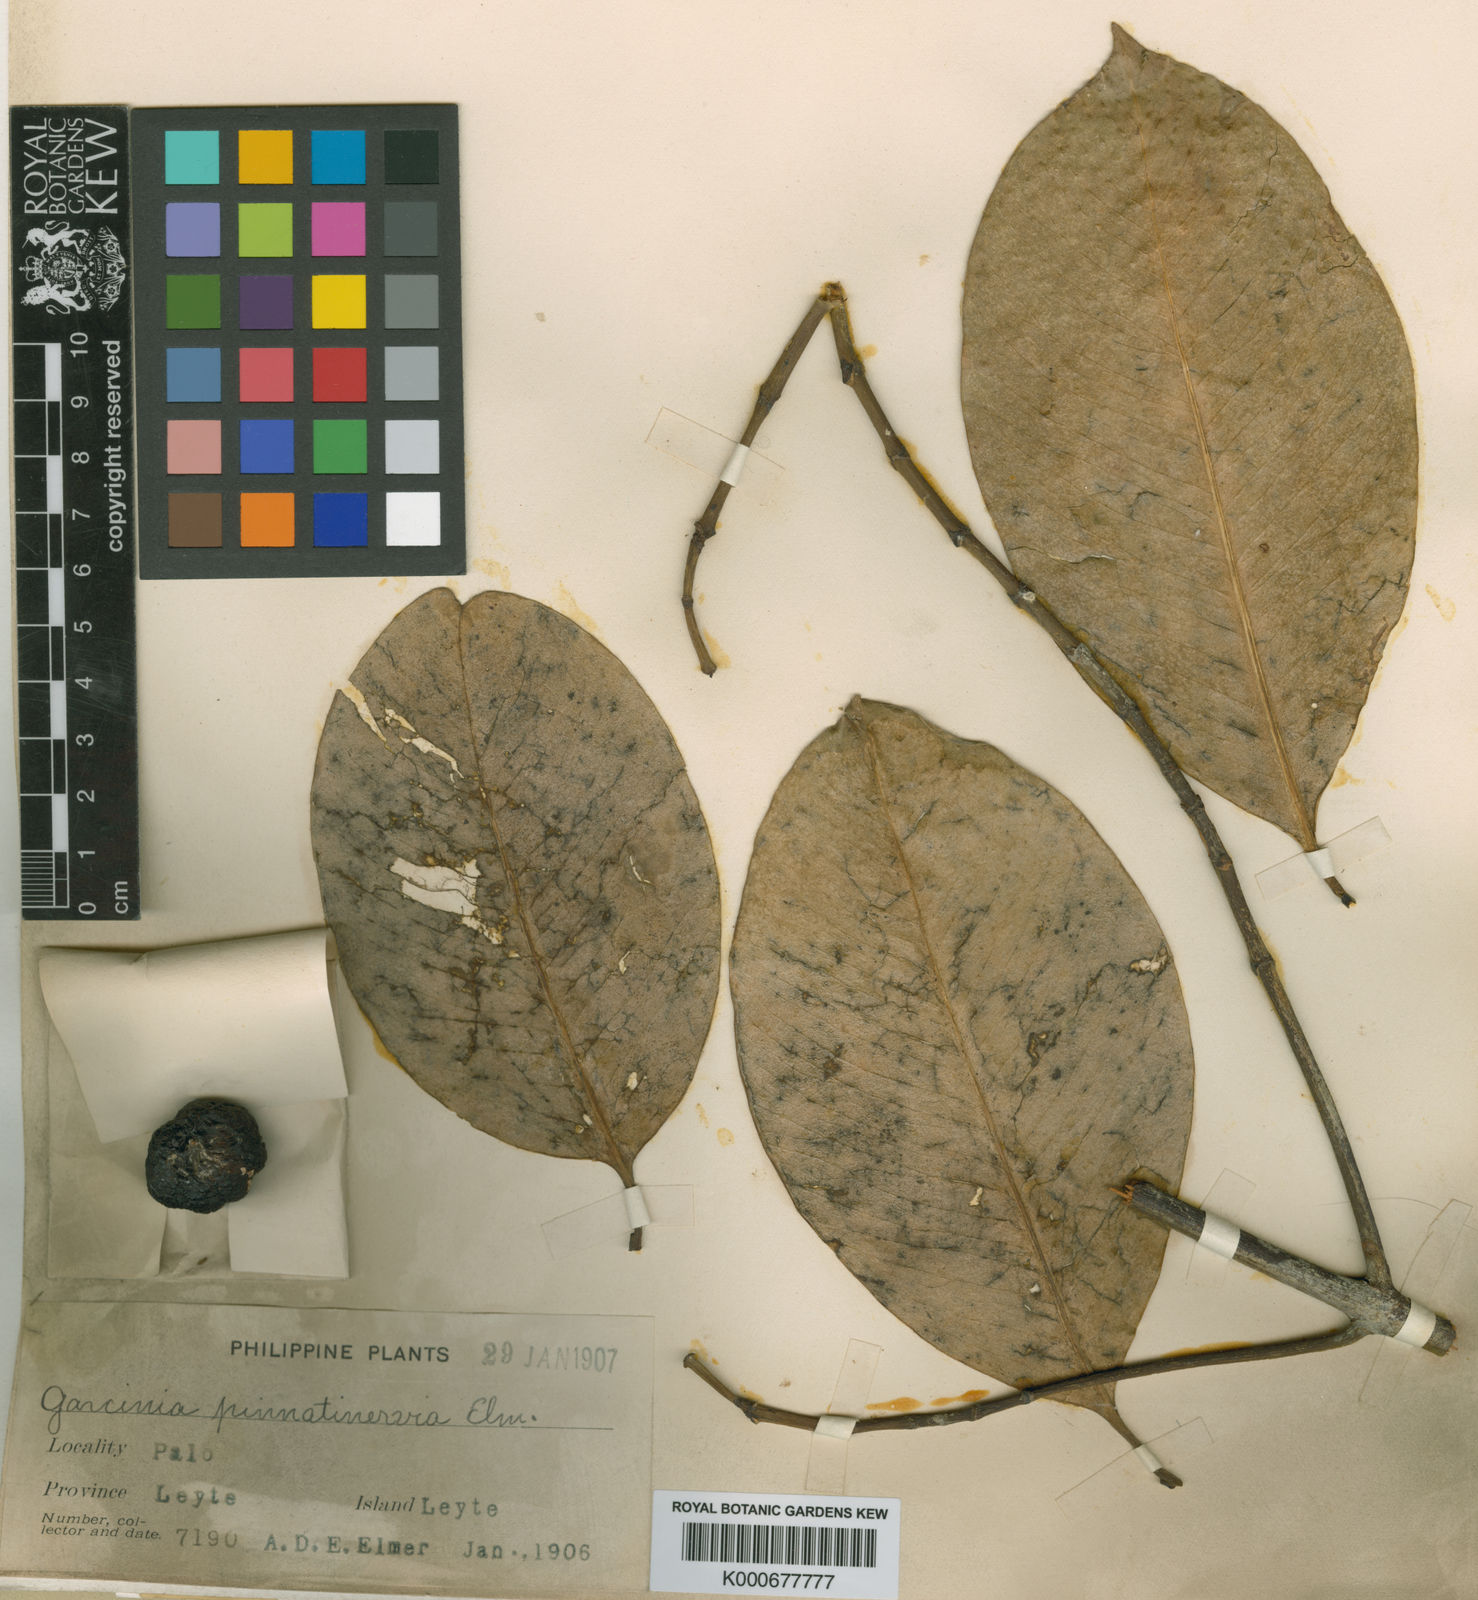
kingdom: Plantae
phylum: Tracheophyta
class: Magnoliopsida
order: Malpighiales
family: Clusiaceae
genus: Garcinia
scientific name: Garcinia tetrandra
